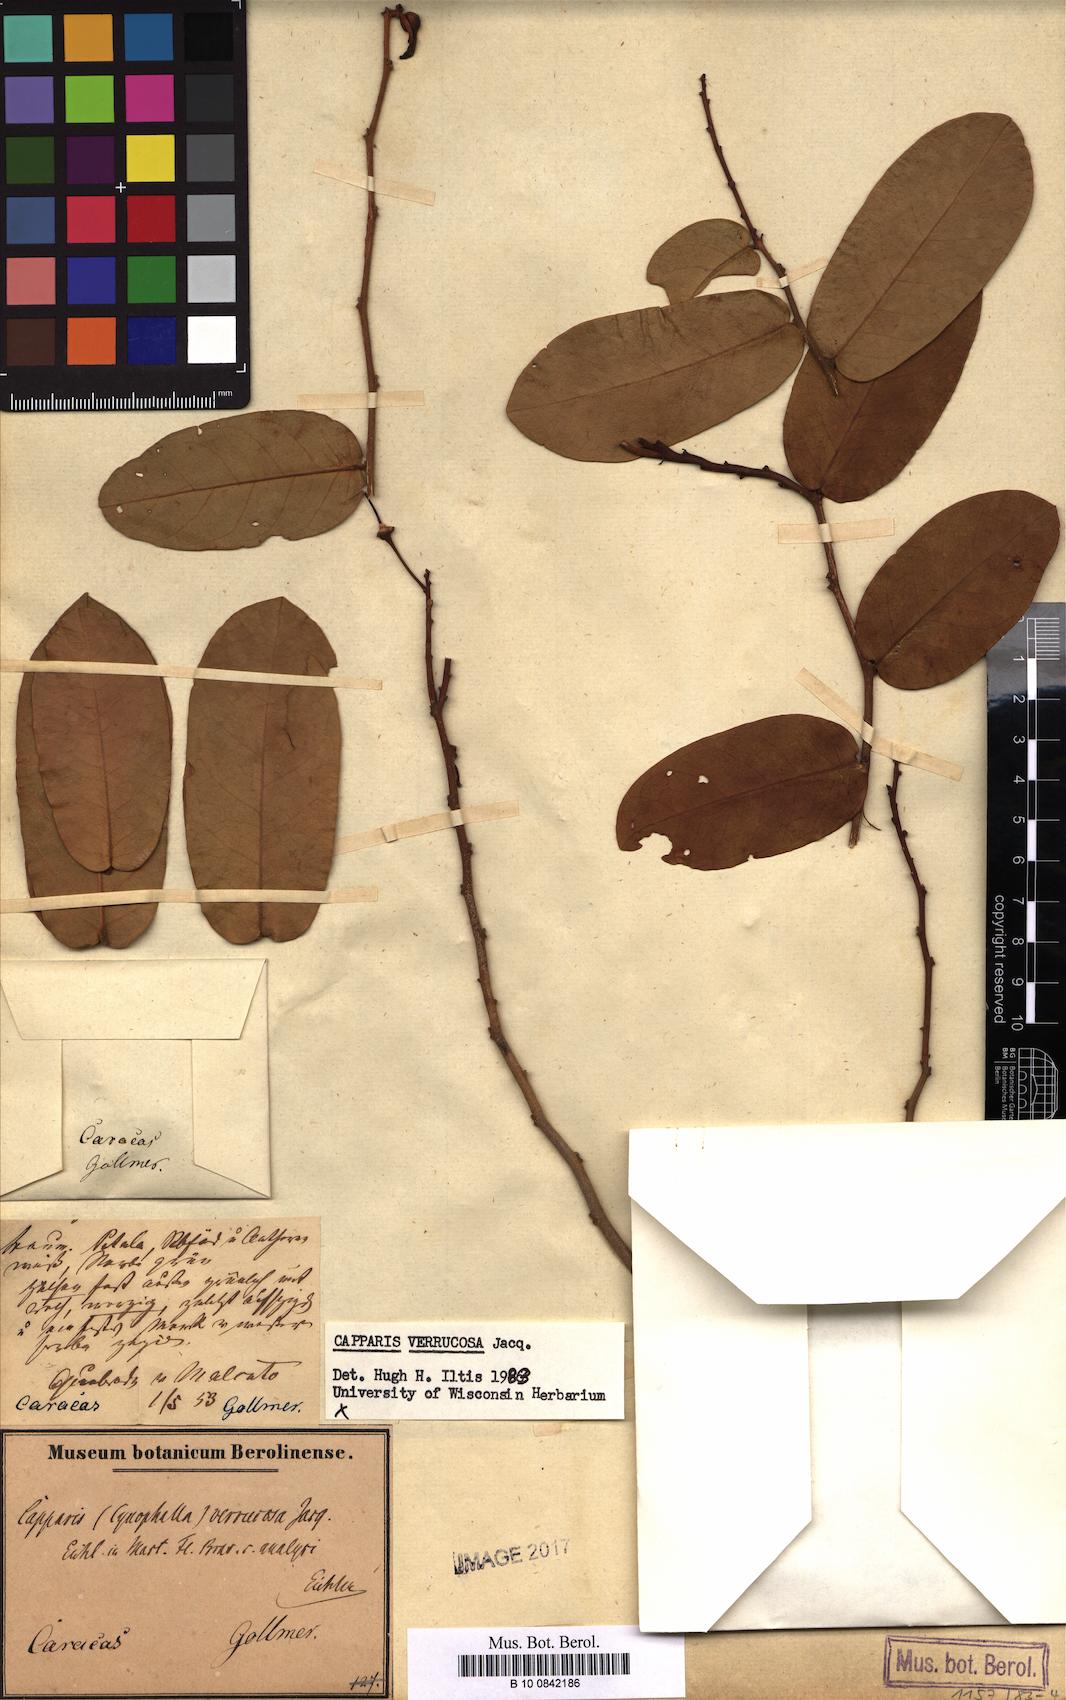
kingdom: Plantae
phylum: Tracheophyta
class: Magnoliopsida
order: Brassicales
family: Capparaceae
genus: Cynophalla
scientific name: Cynophalla verrucosa
